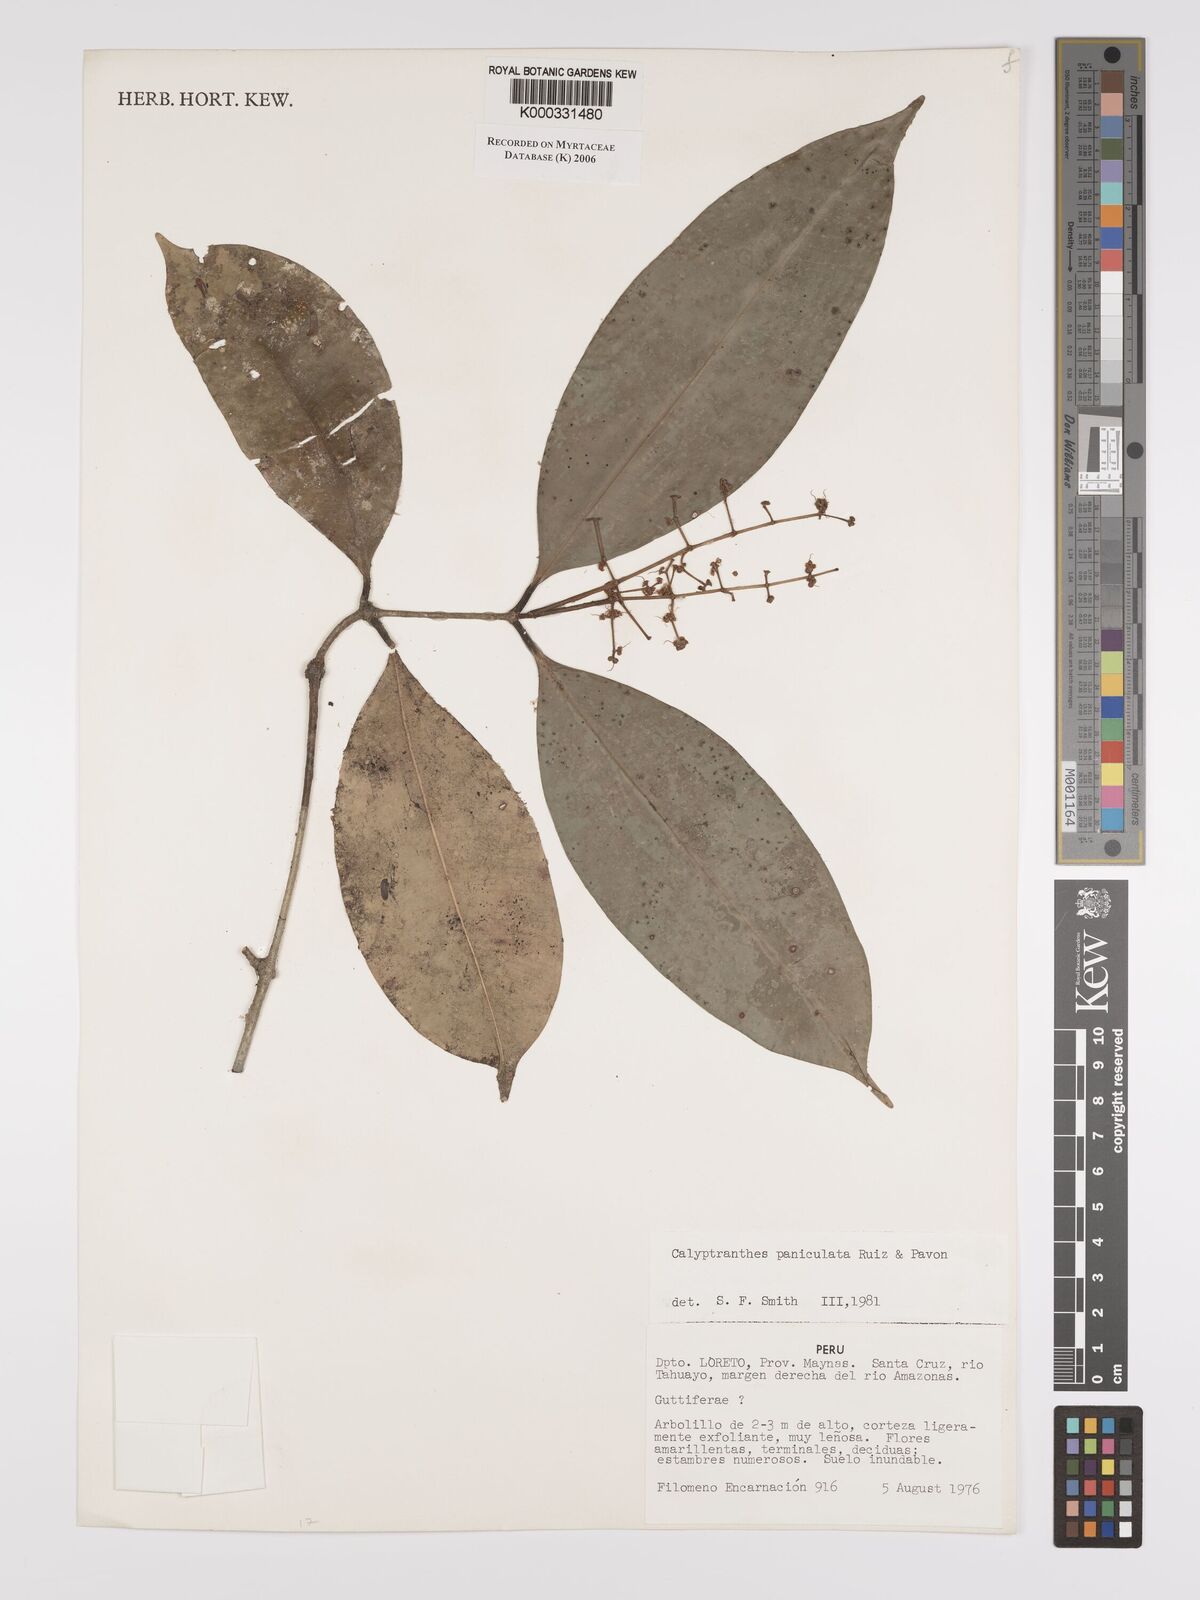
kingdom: Plantae
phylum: Tracheophyta
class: Magnoliopsida
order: Myrtales
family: Myrtaceae
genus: Calyptranthes
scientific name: Calyptranthes
